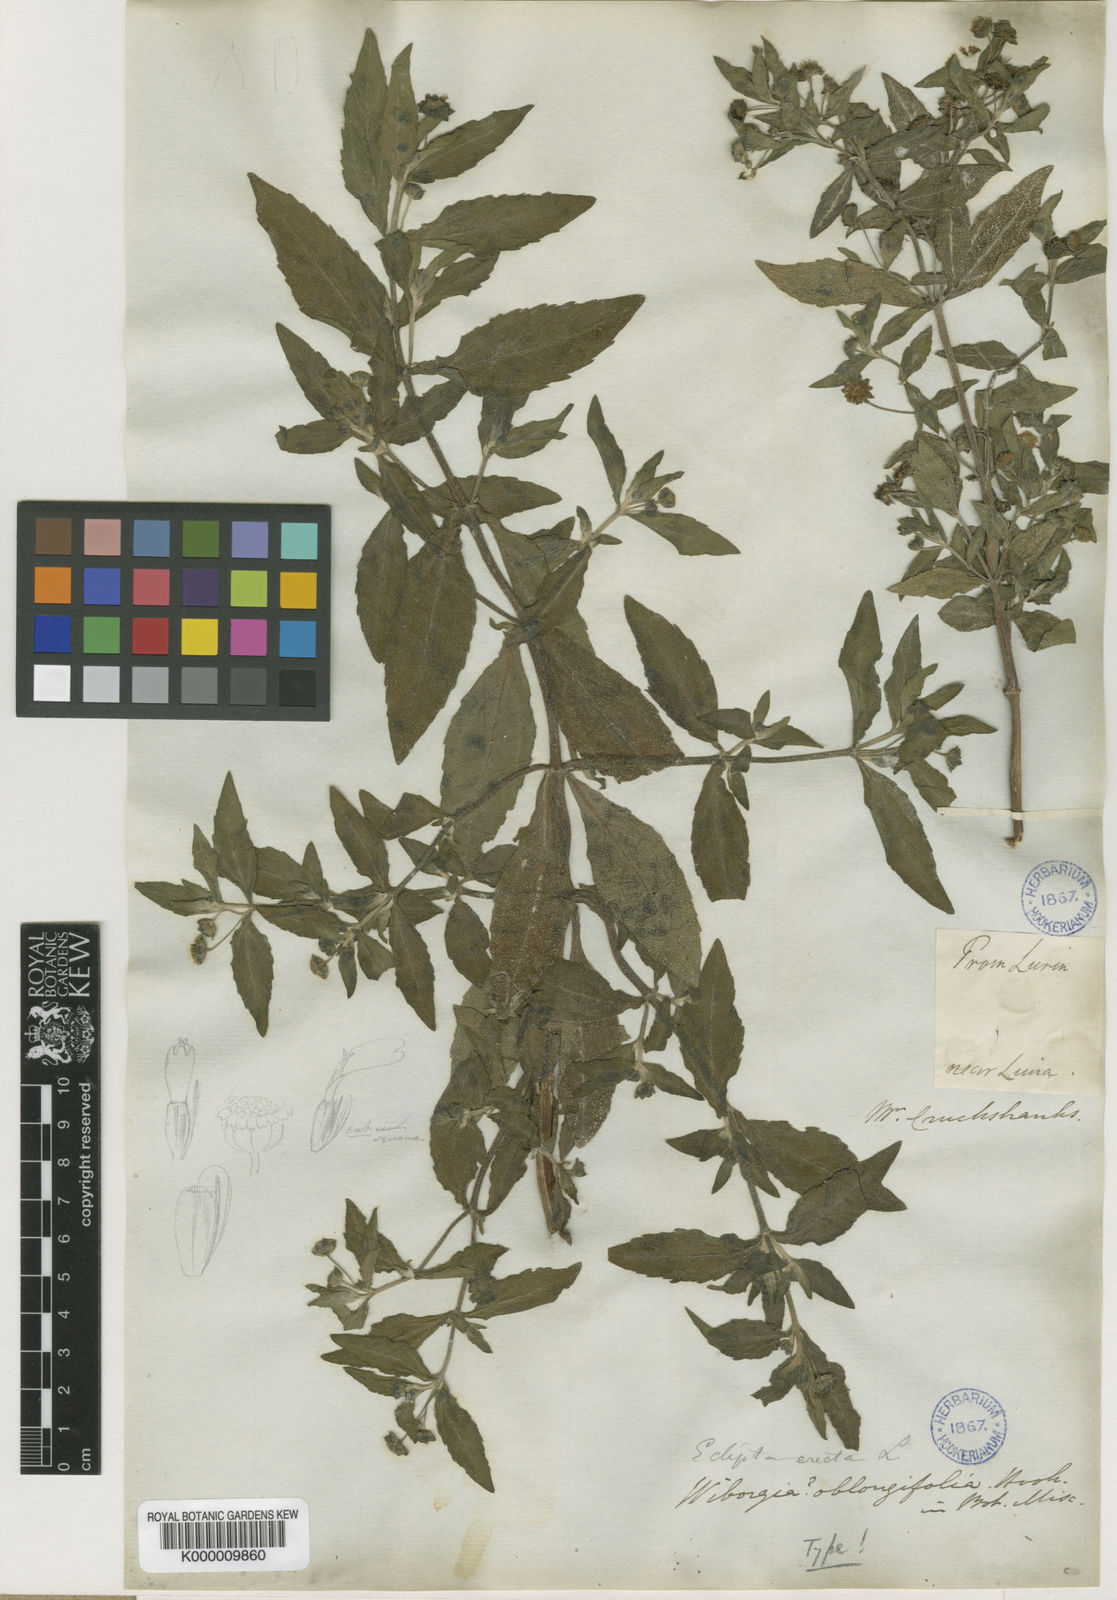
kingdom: Plantae
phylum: Tracheophyta
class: Magnoliopsida
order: Asterales
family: Asteraceae
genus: Eclipta
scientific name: Eclipta prostrata
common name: False daisy
